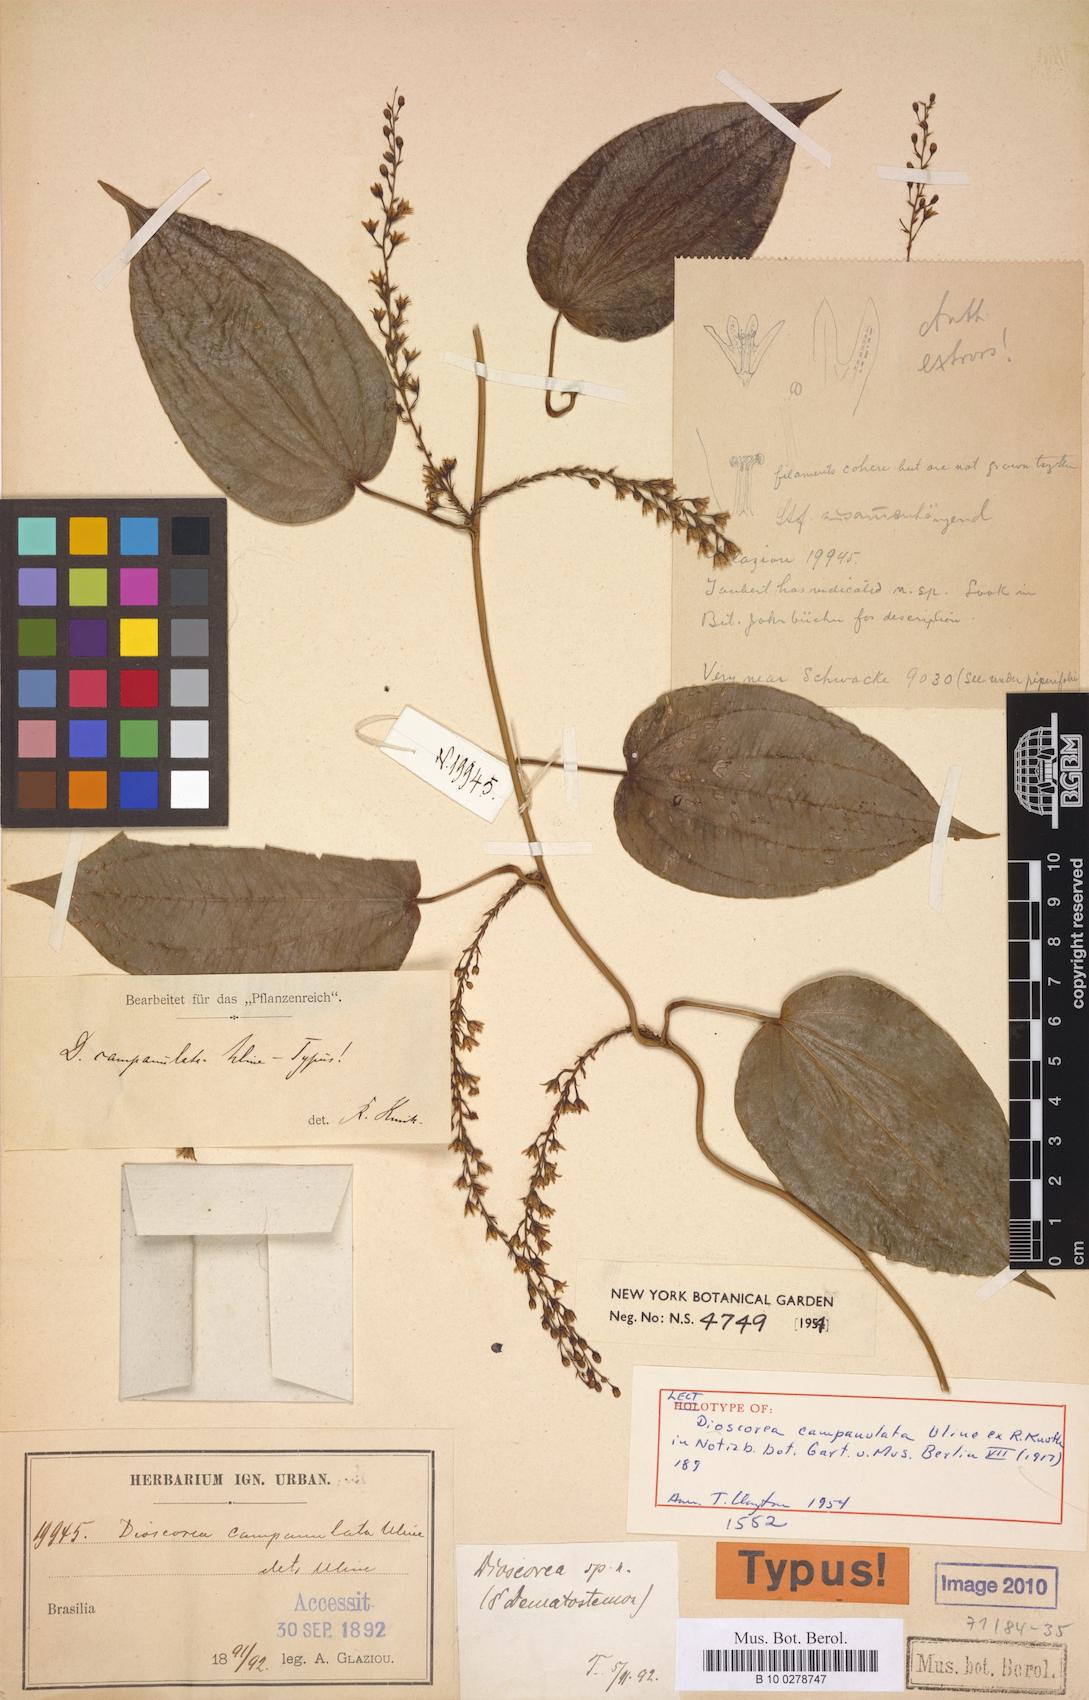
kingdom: Plantae
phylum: Tracheophyta
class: Liliopsida
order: Dioscoreales
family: Dioscoreaceae
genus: Dioscorea
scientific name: Dioscorea campanulata
